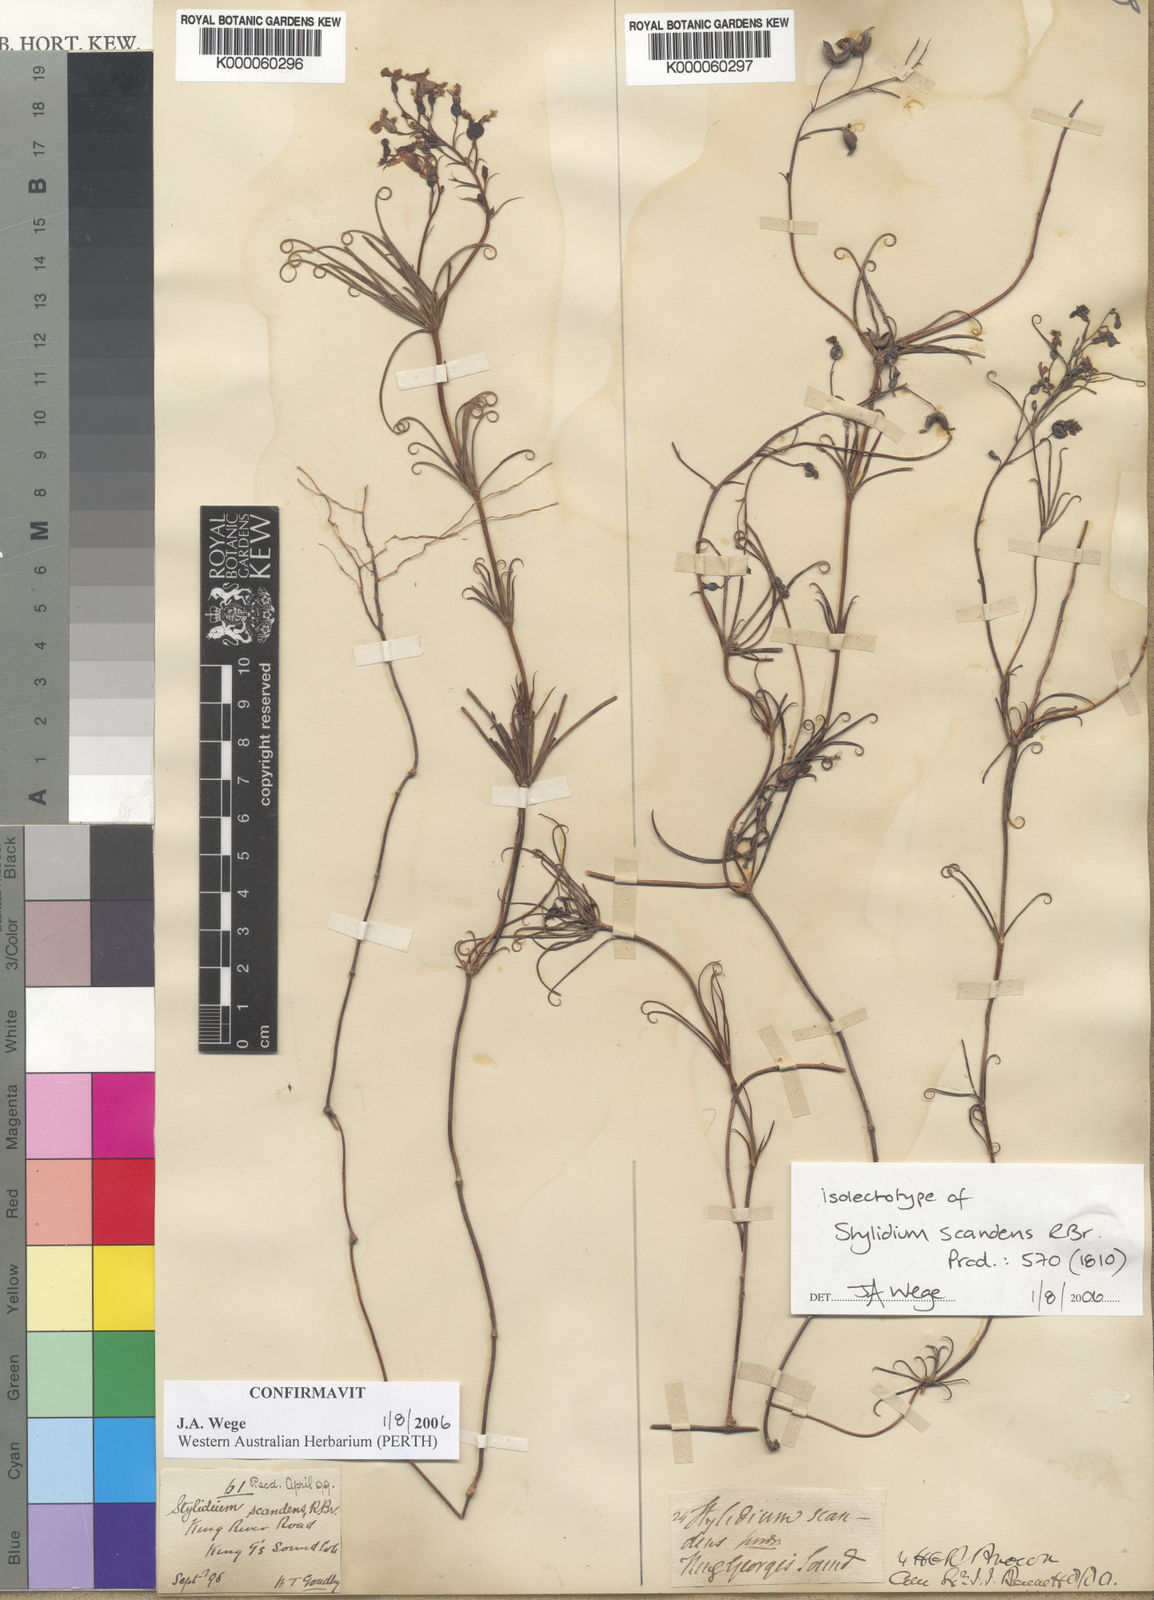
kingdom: Plantae
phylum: Tracheophyta
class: Magnoliopsida
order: Asterales
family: Stylidiaceae
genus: Stylidium
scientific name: Stylidium scandens
